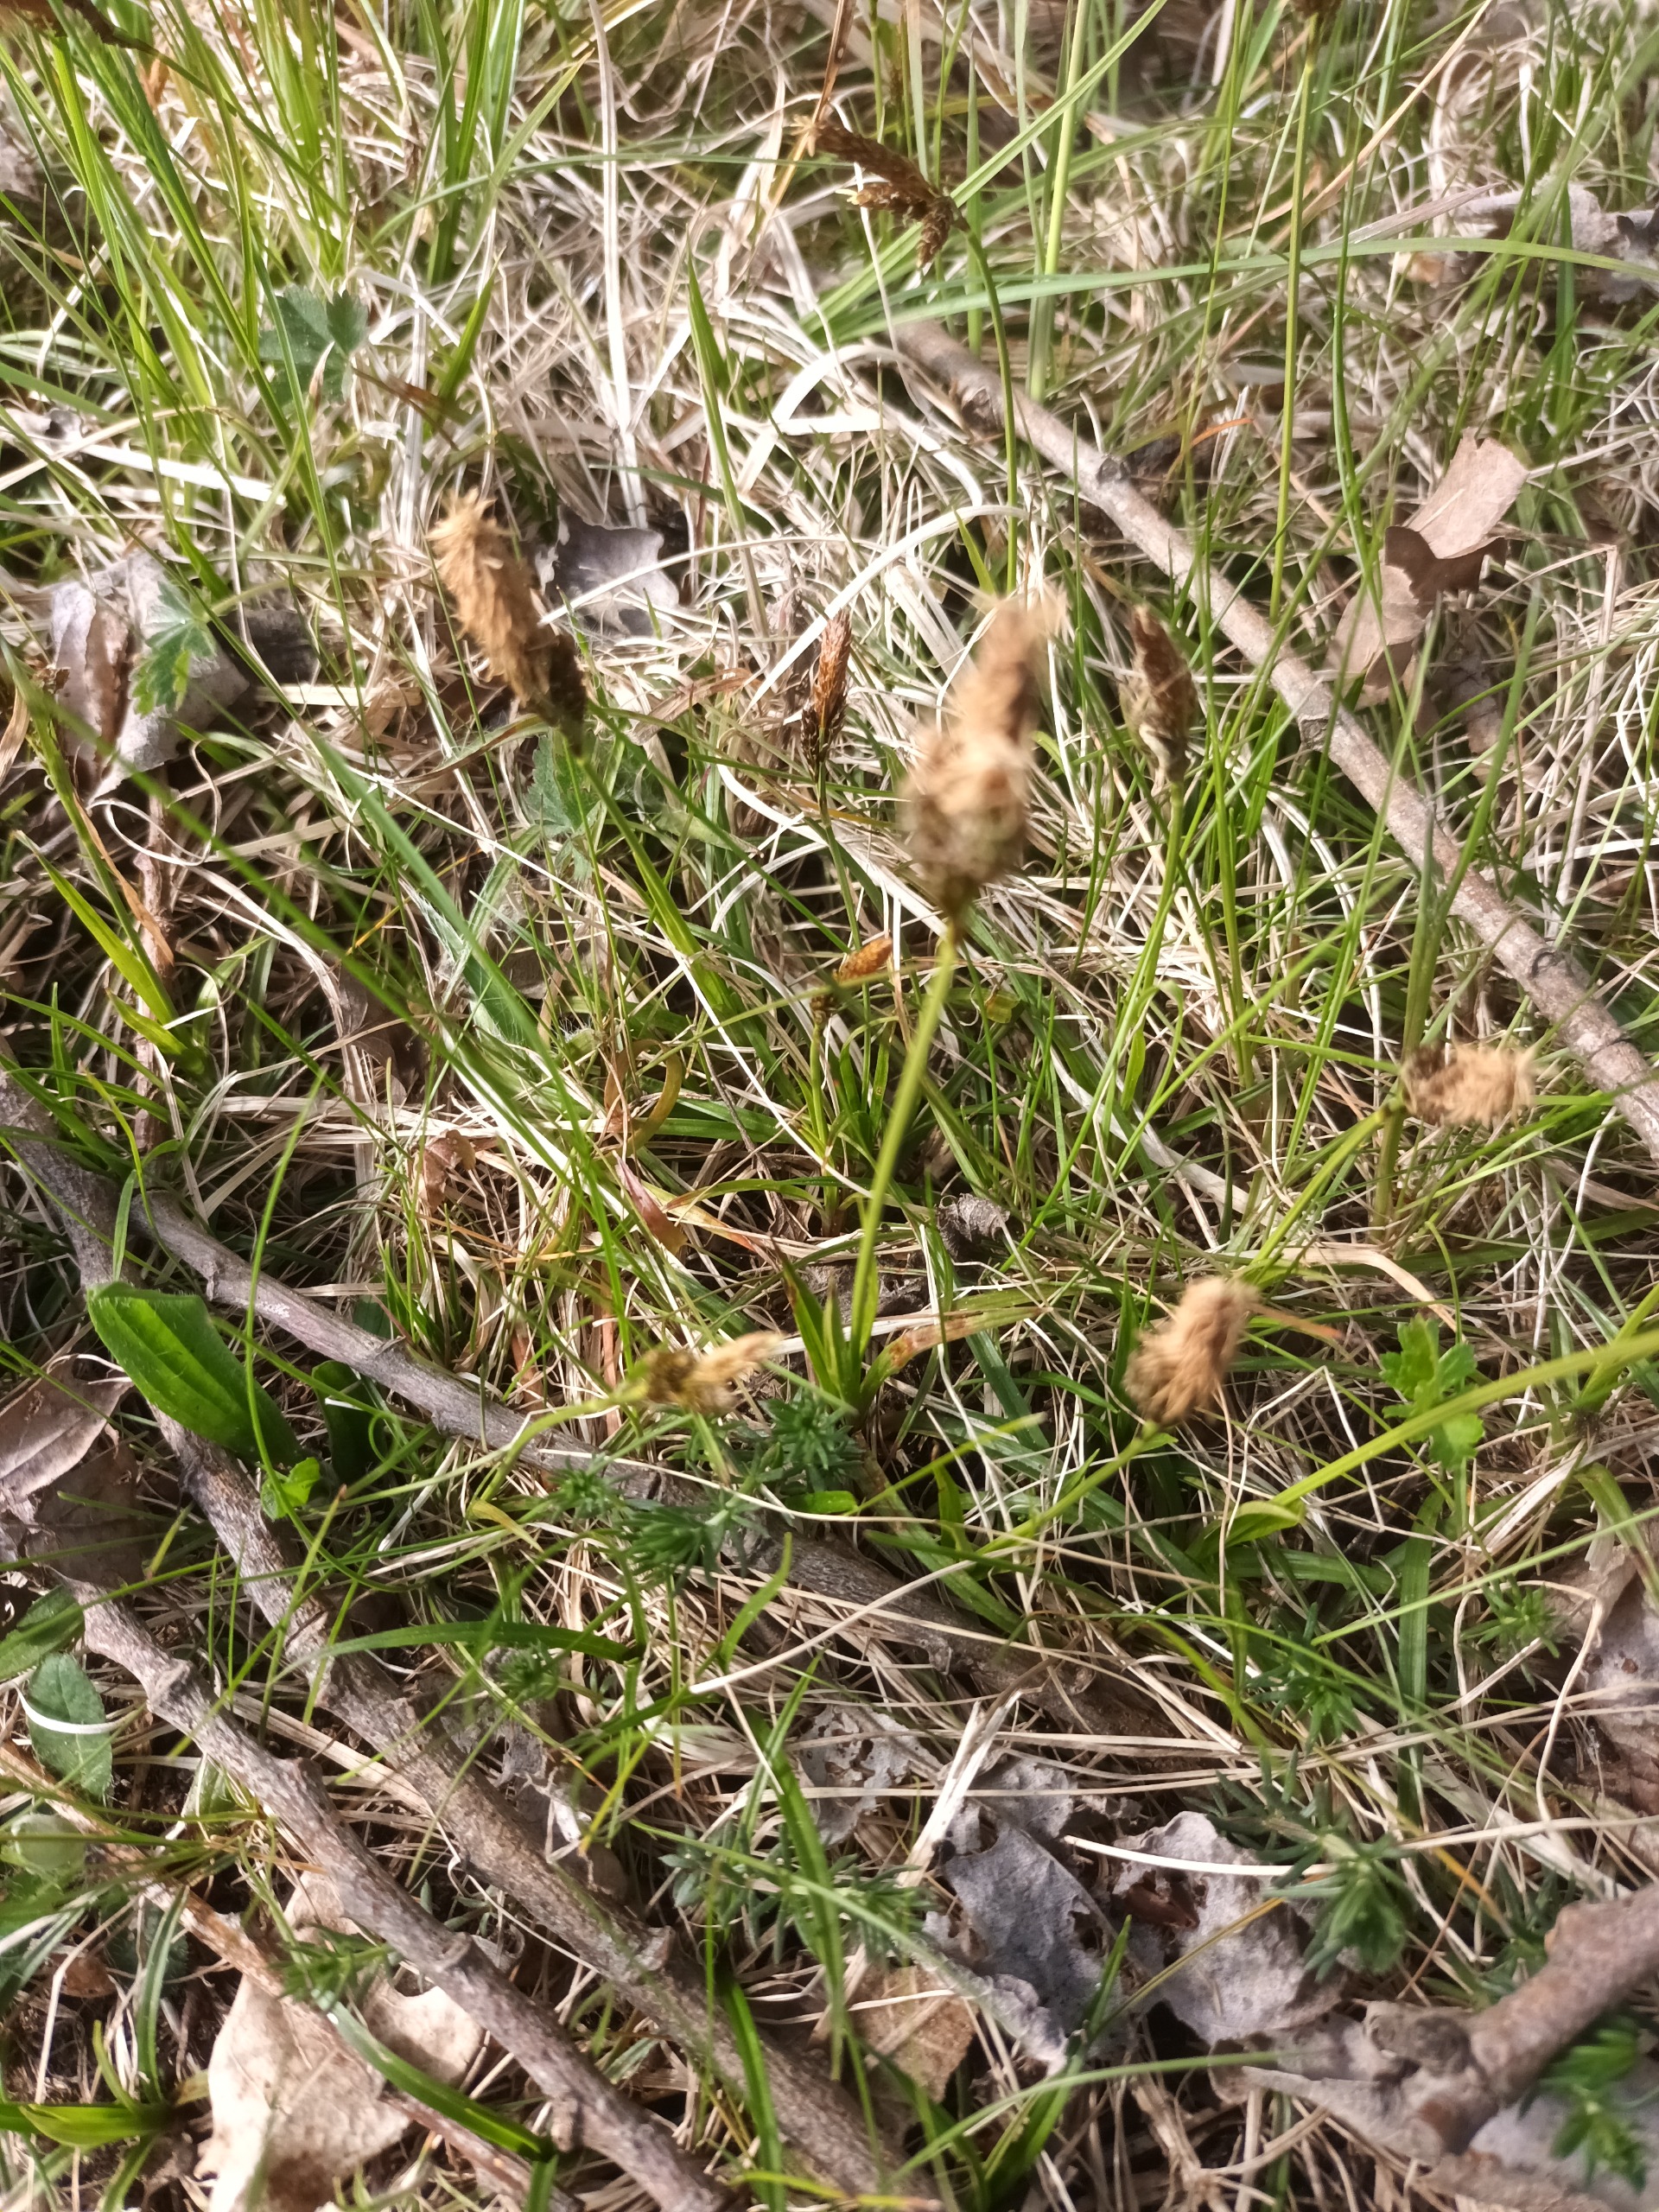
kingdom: Plantae
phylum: Tracheophyta
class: Liliopsida
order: Poales
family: Cyperaceae
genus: Carex
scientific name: Carex caryophyllea
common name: Vår-star
